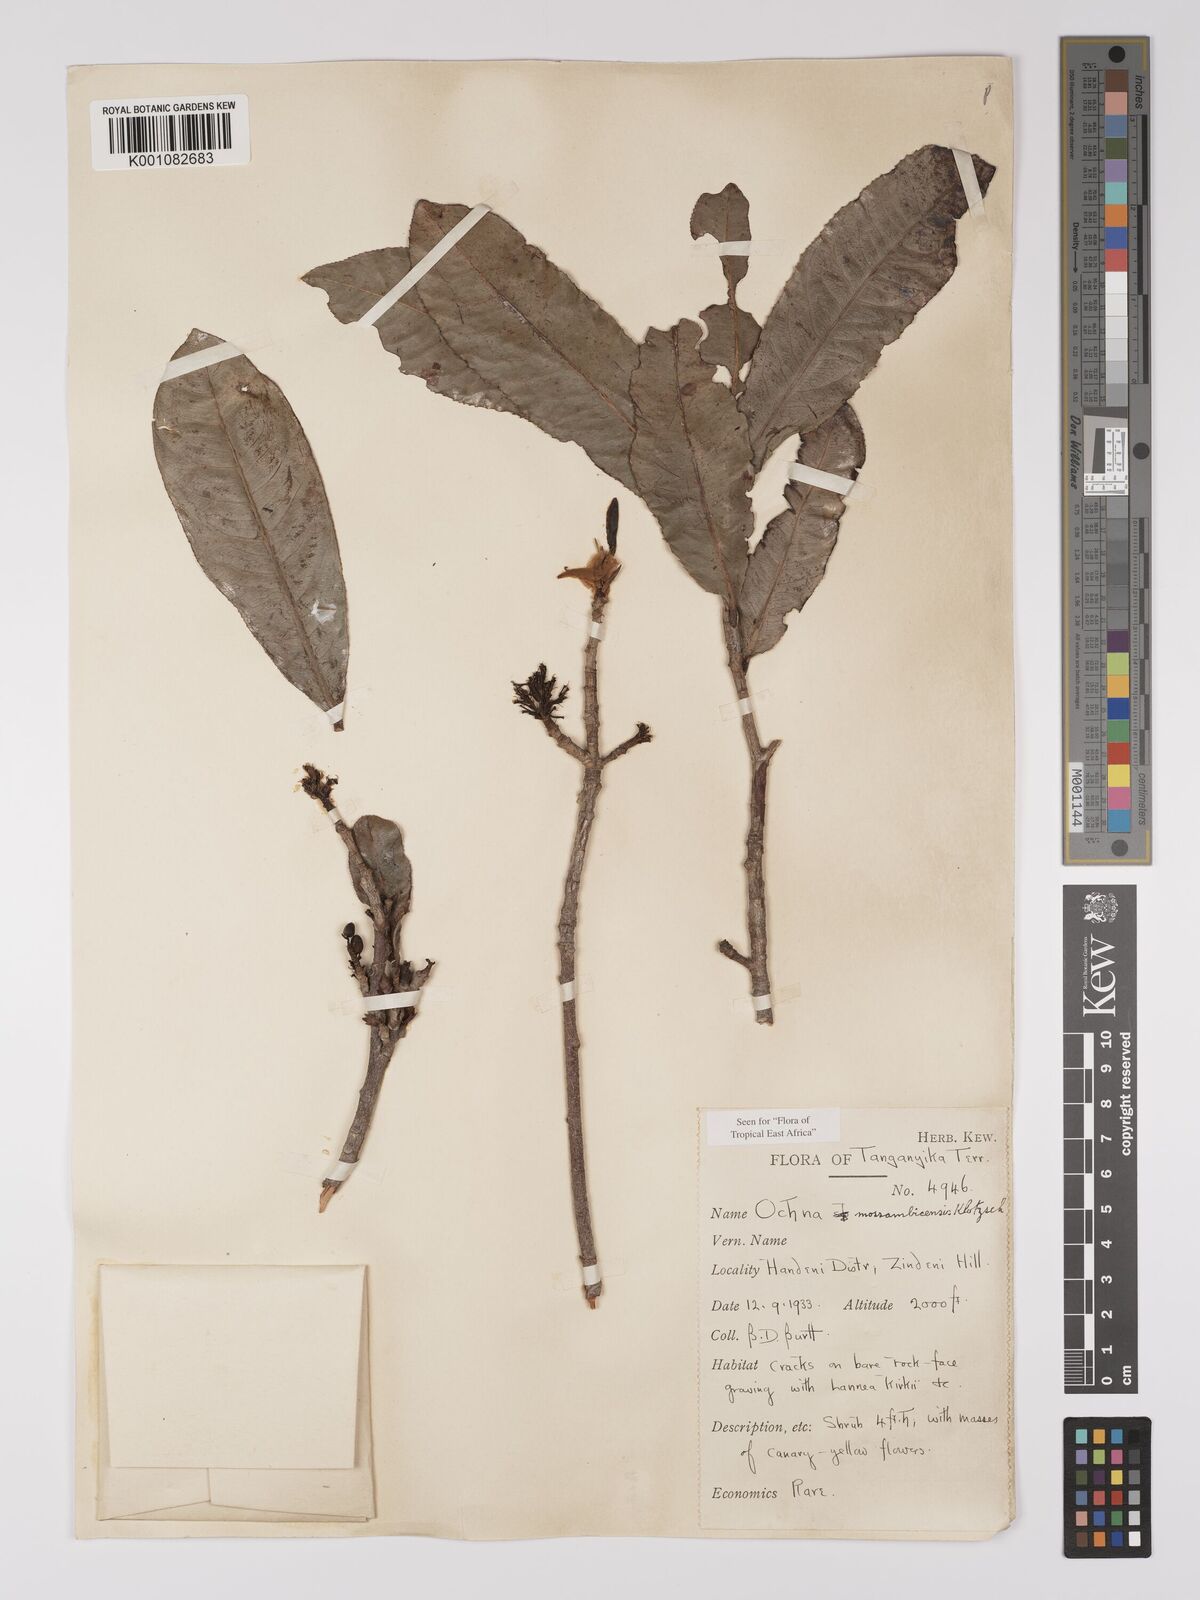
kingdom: Plantae
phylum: Tracheophyta
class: Magnoliopsida
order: Malpighiales
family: Ochnaceae
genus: Ochna
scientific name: Ochna atropurpurea
